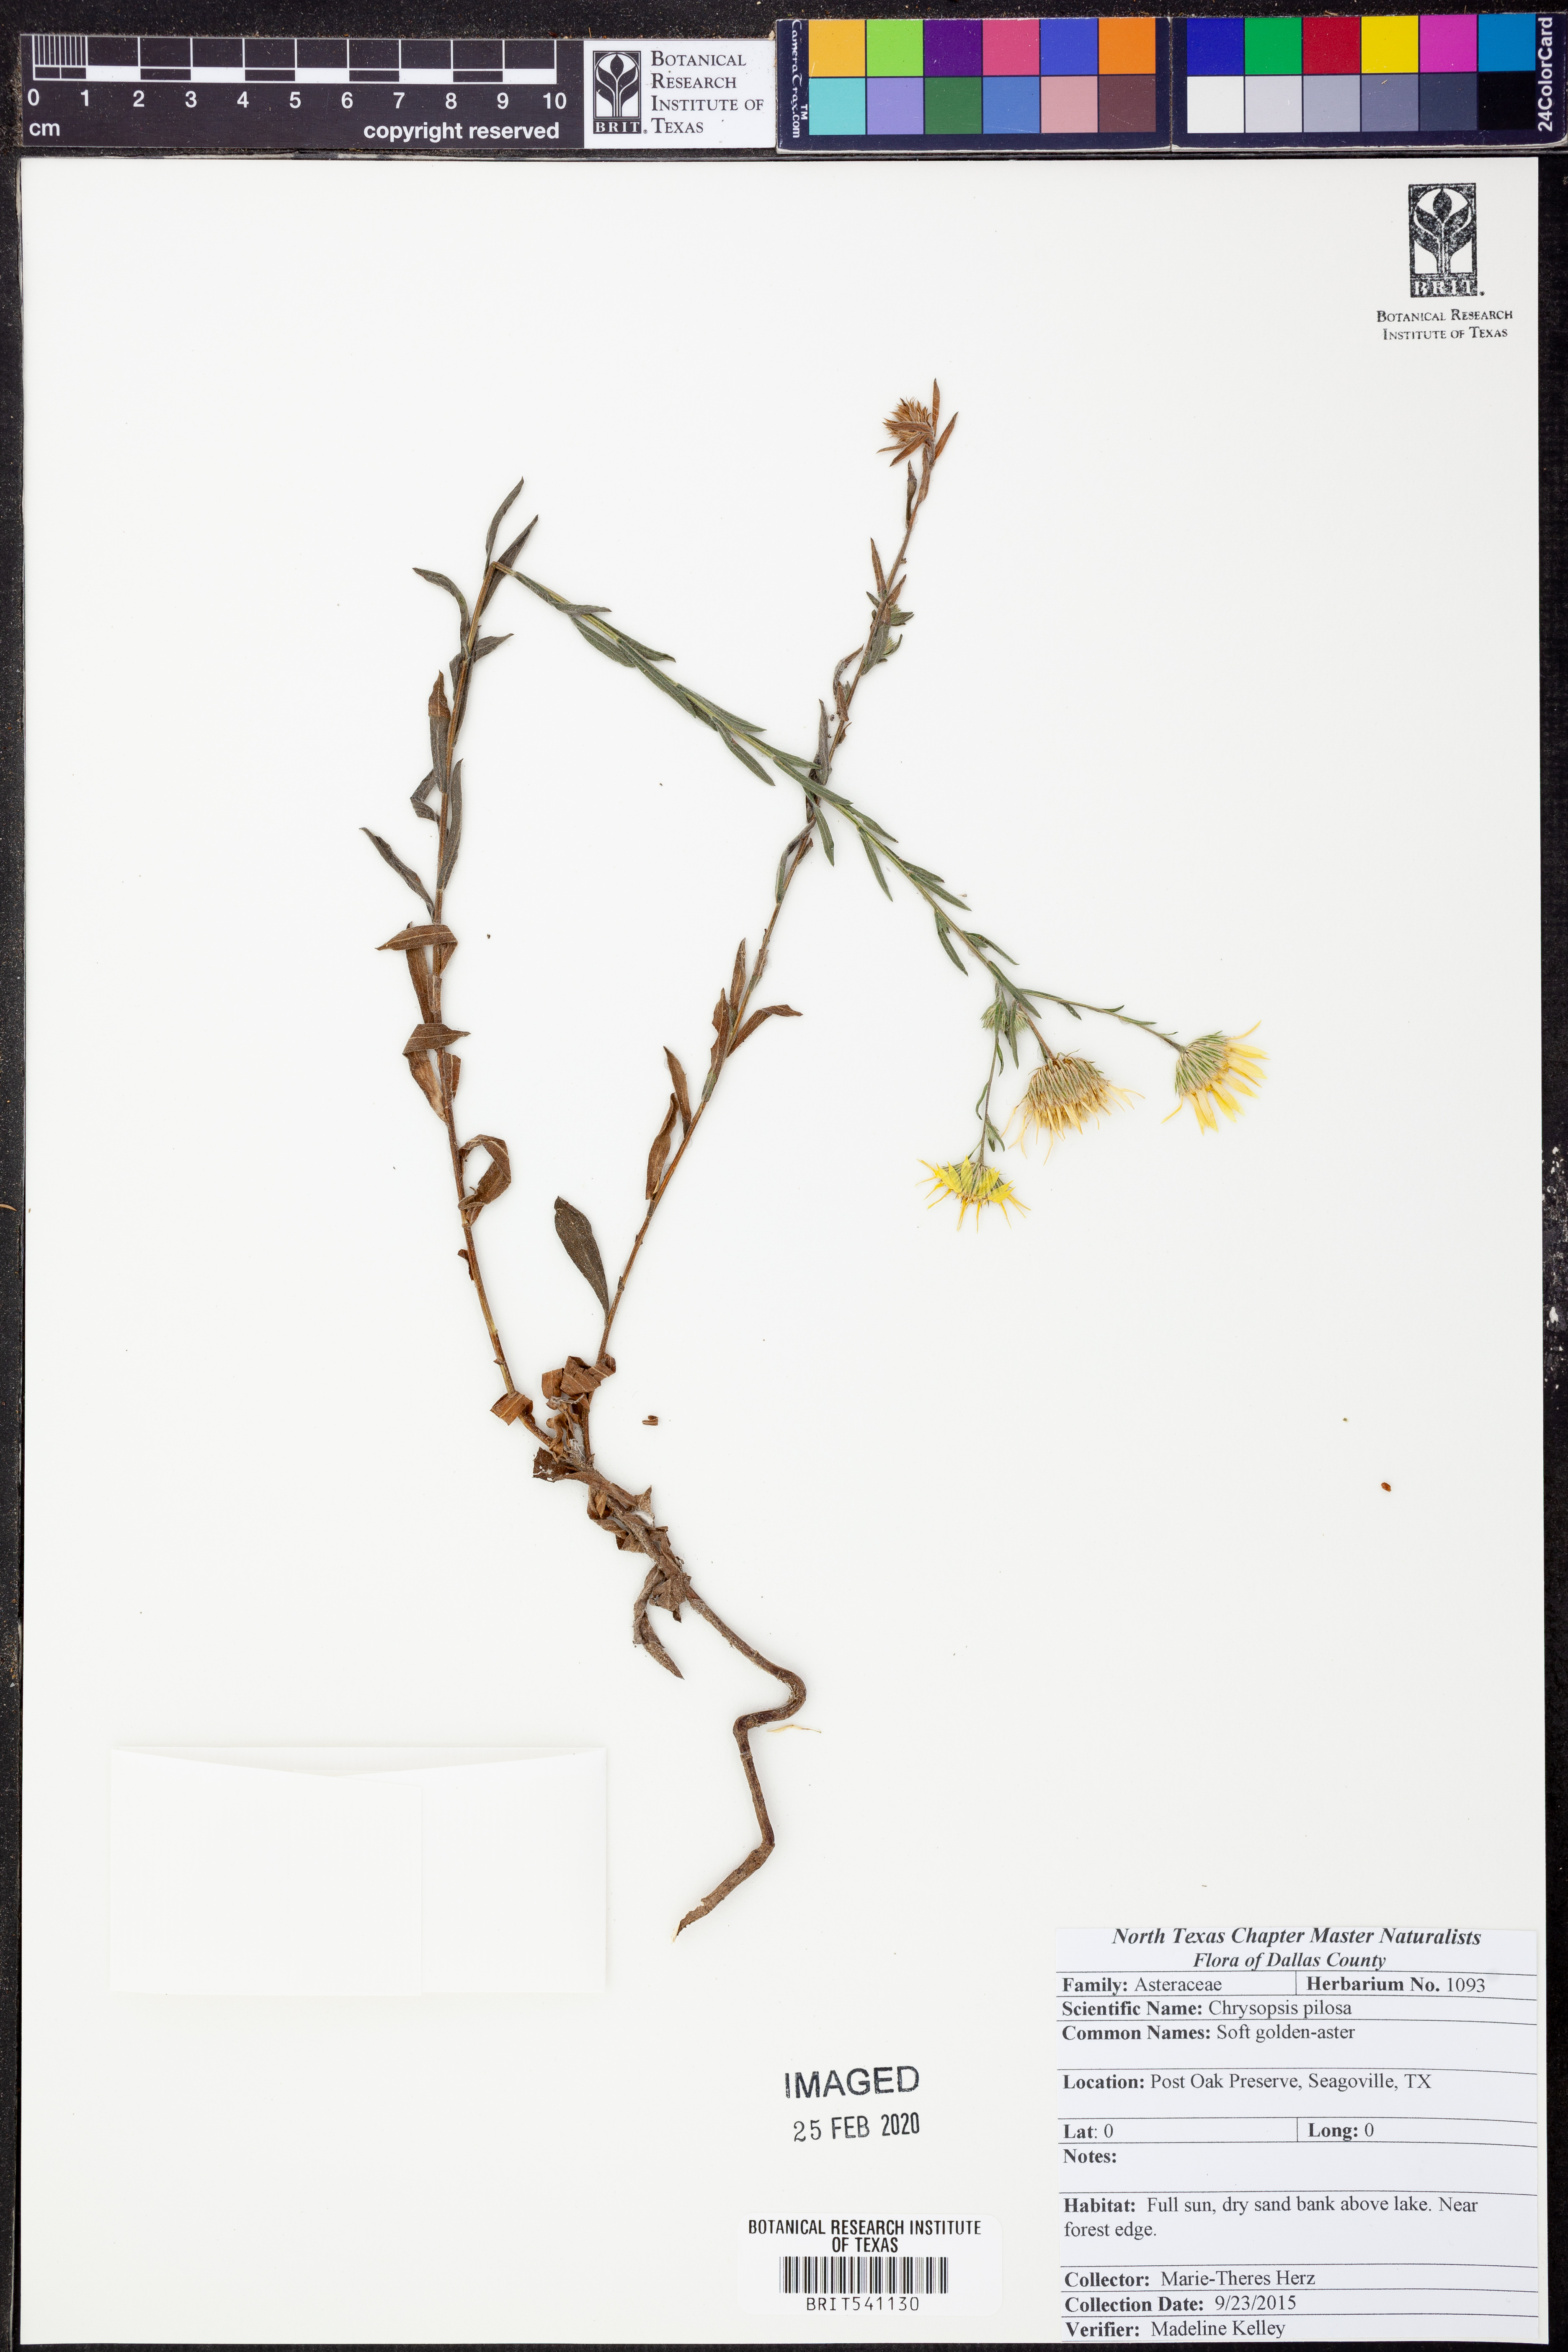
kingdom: Plantae
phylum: Tracheophyta
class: Magnoliopsida
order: Asterales
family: Asteraceae
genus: Bradburia
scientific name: Bradburia pilosa
